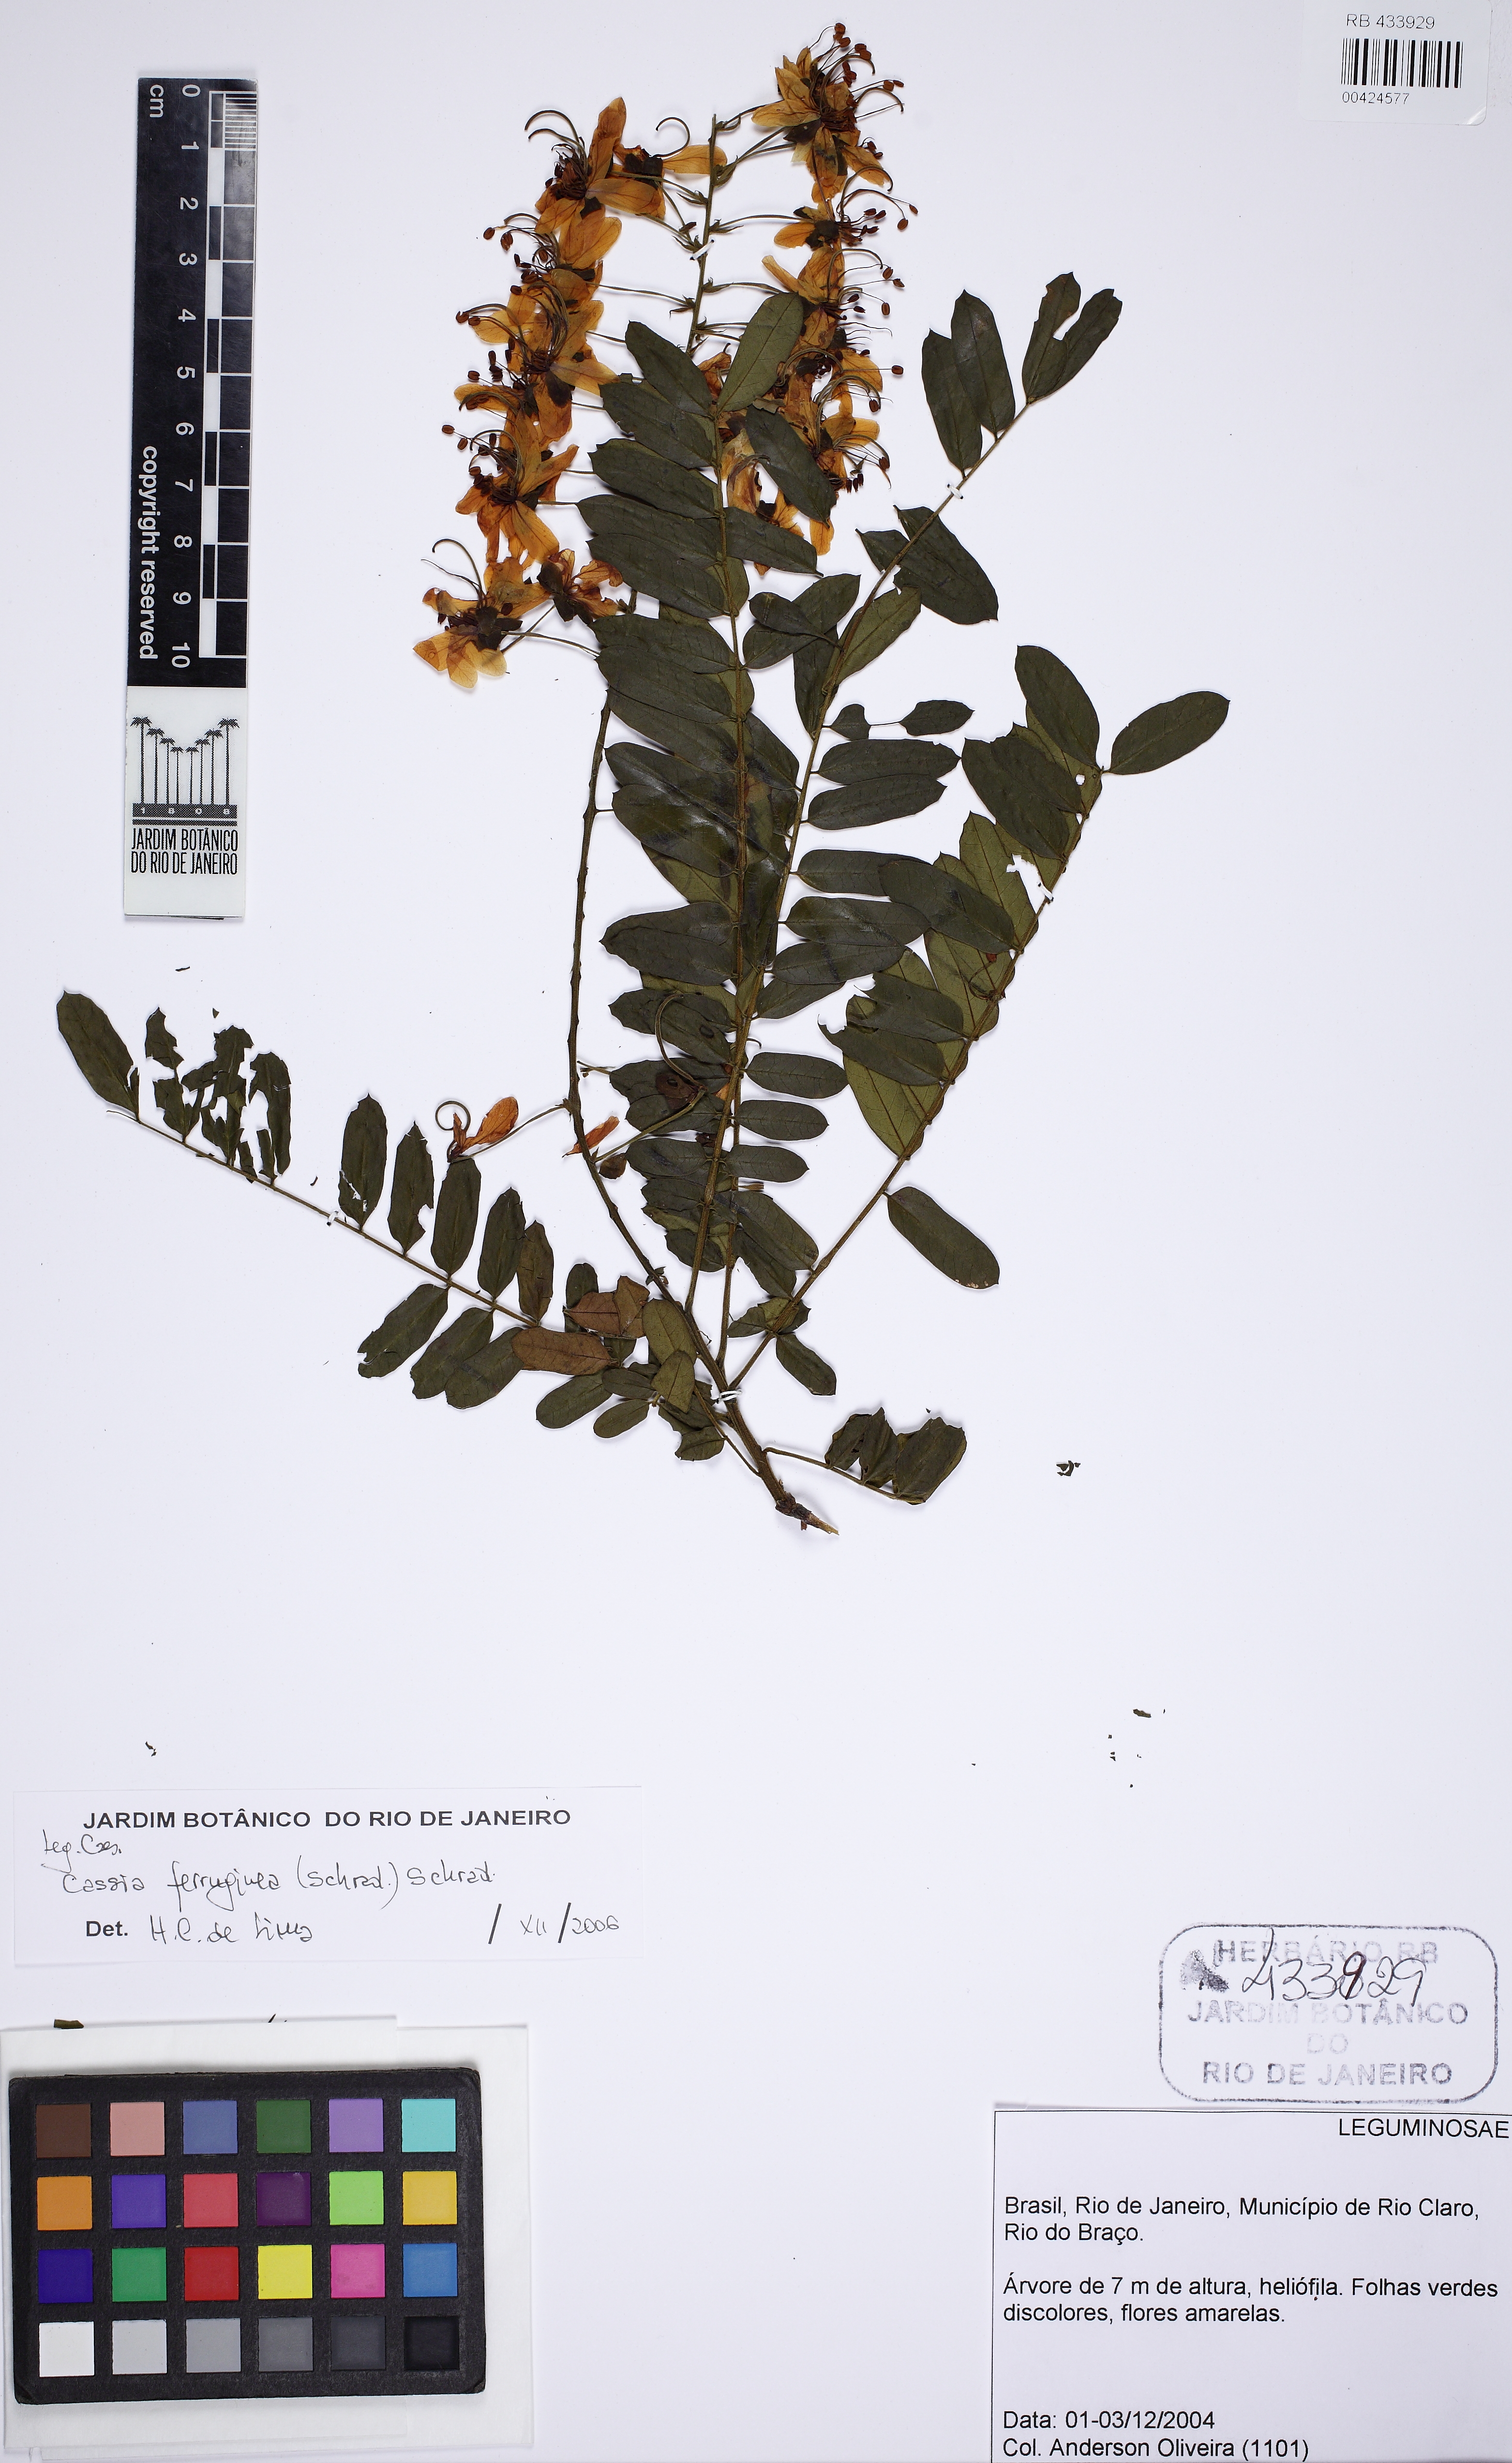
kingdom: Plantae
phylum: Tracheophyta
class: Magnoliopsida
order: Fabales
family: Fabaceae
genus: Cassia
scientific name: Cassia ferruginea
